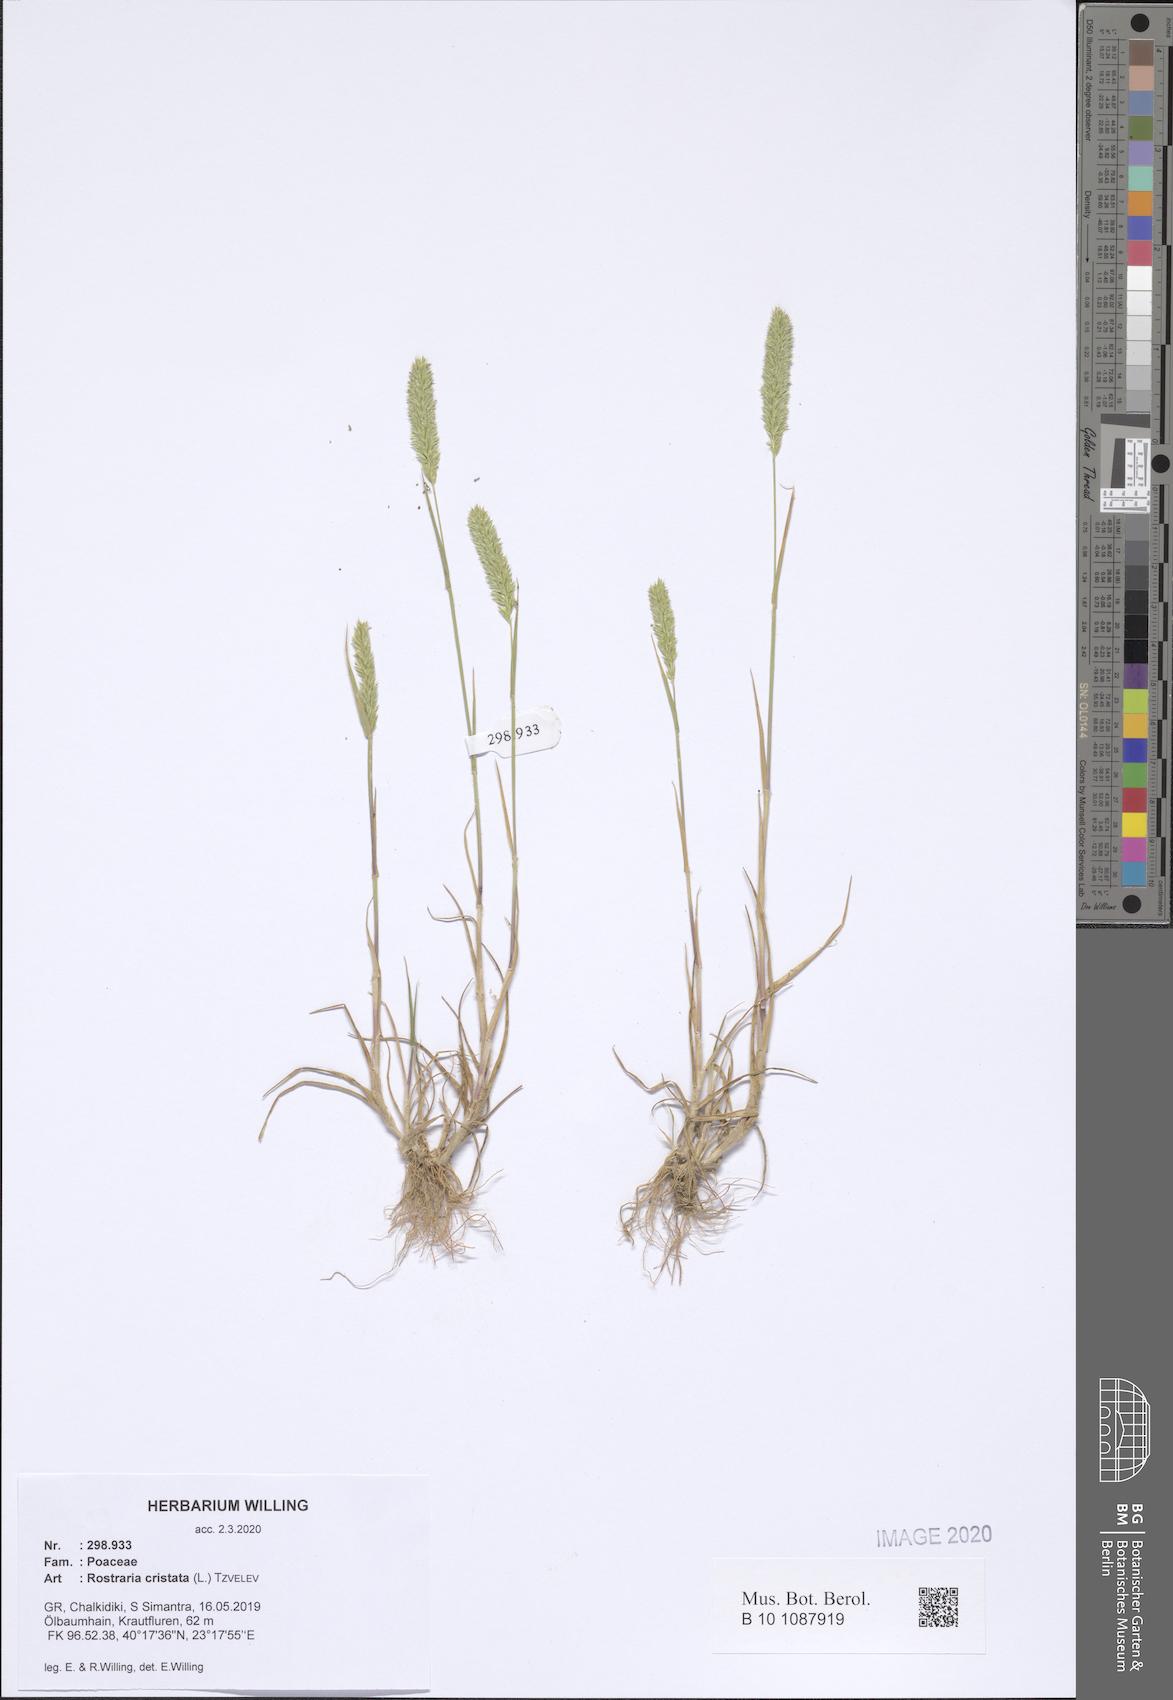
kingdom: Plantae
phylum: Tracheophyta
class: Liliopsida
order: Poales
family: Poaceae
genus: Rostraria
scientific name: Rostraria cristata
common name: Mediterranean hair-grass
